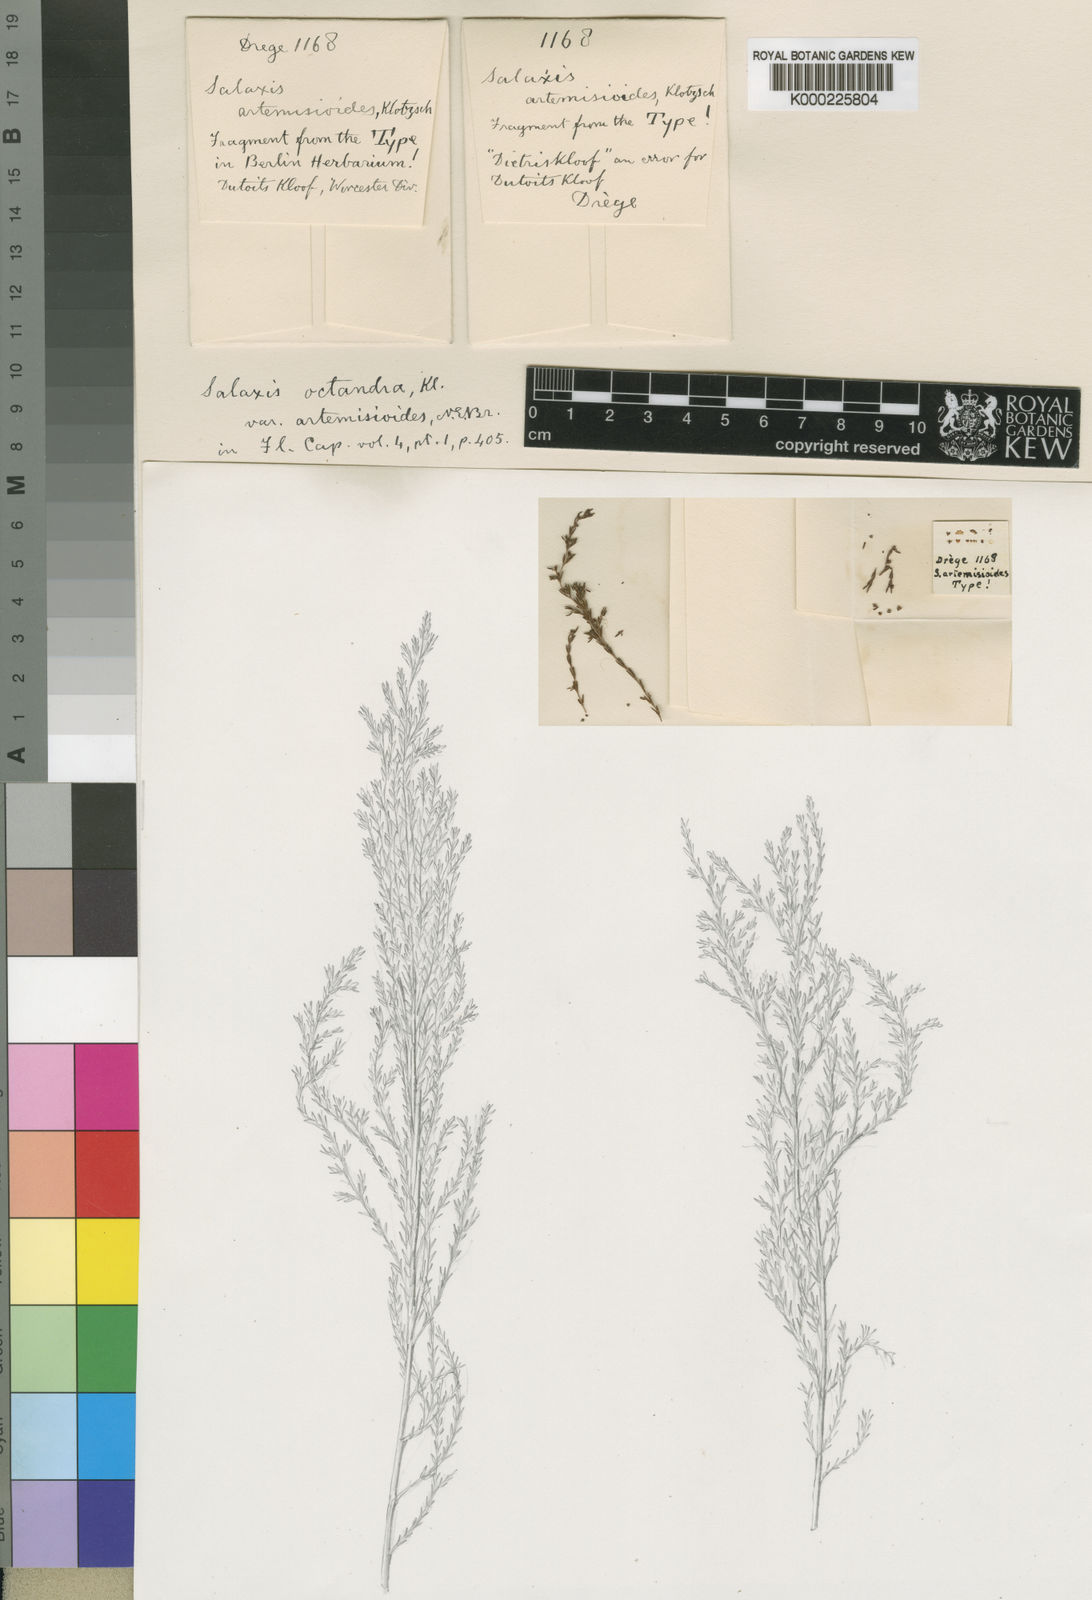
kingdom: Plantae
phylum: Tracheophyta
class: Magnoliopsida
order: Ericales
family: Ericaceae
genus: Erica
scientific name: Erica axillaris
